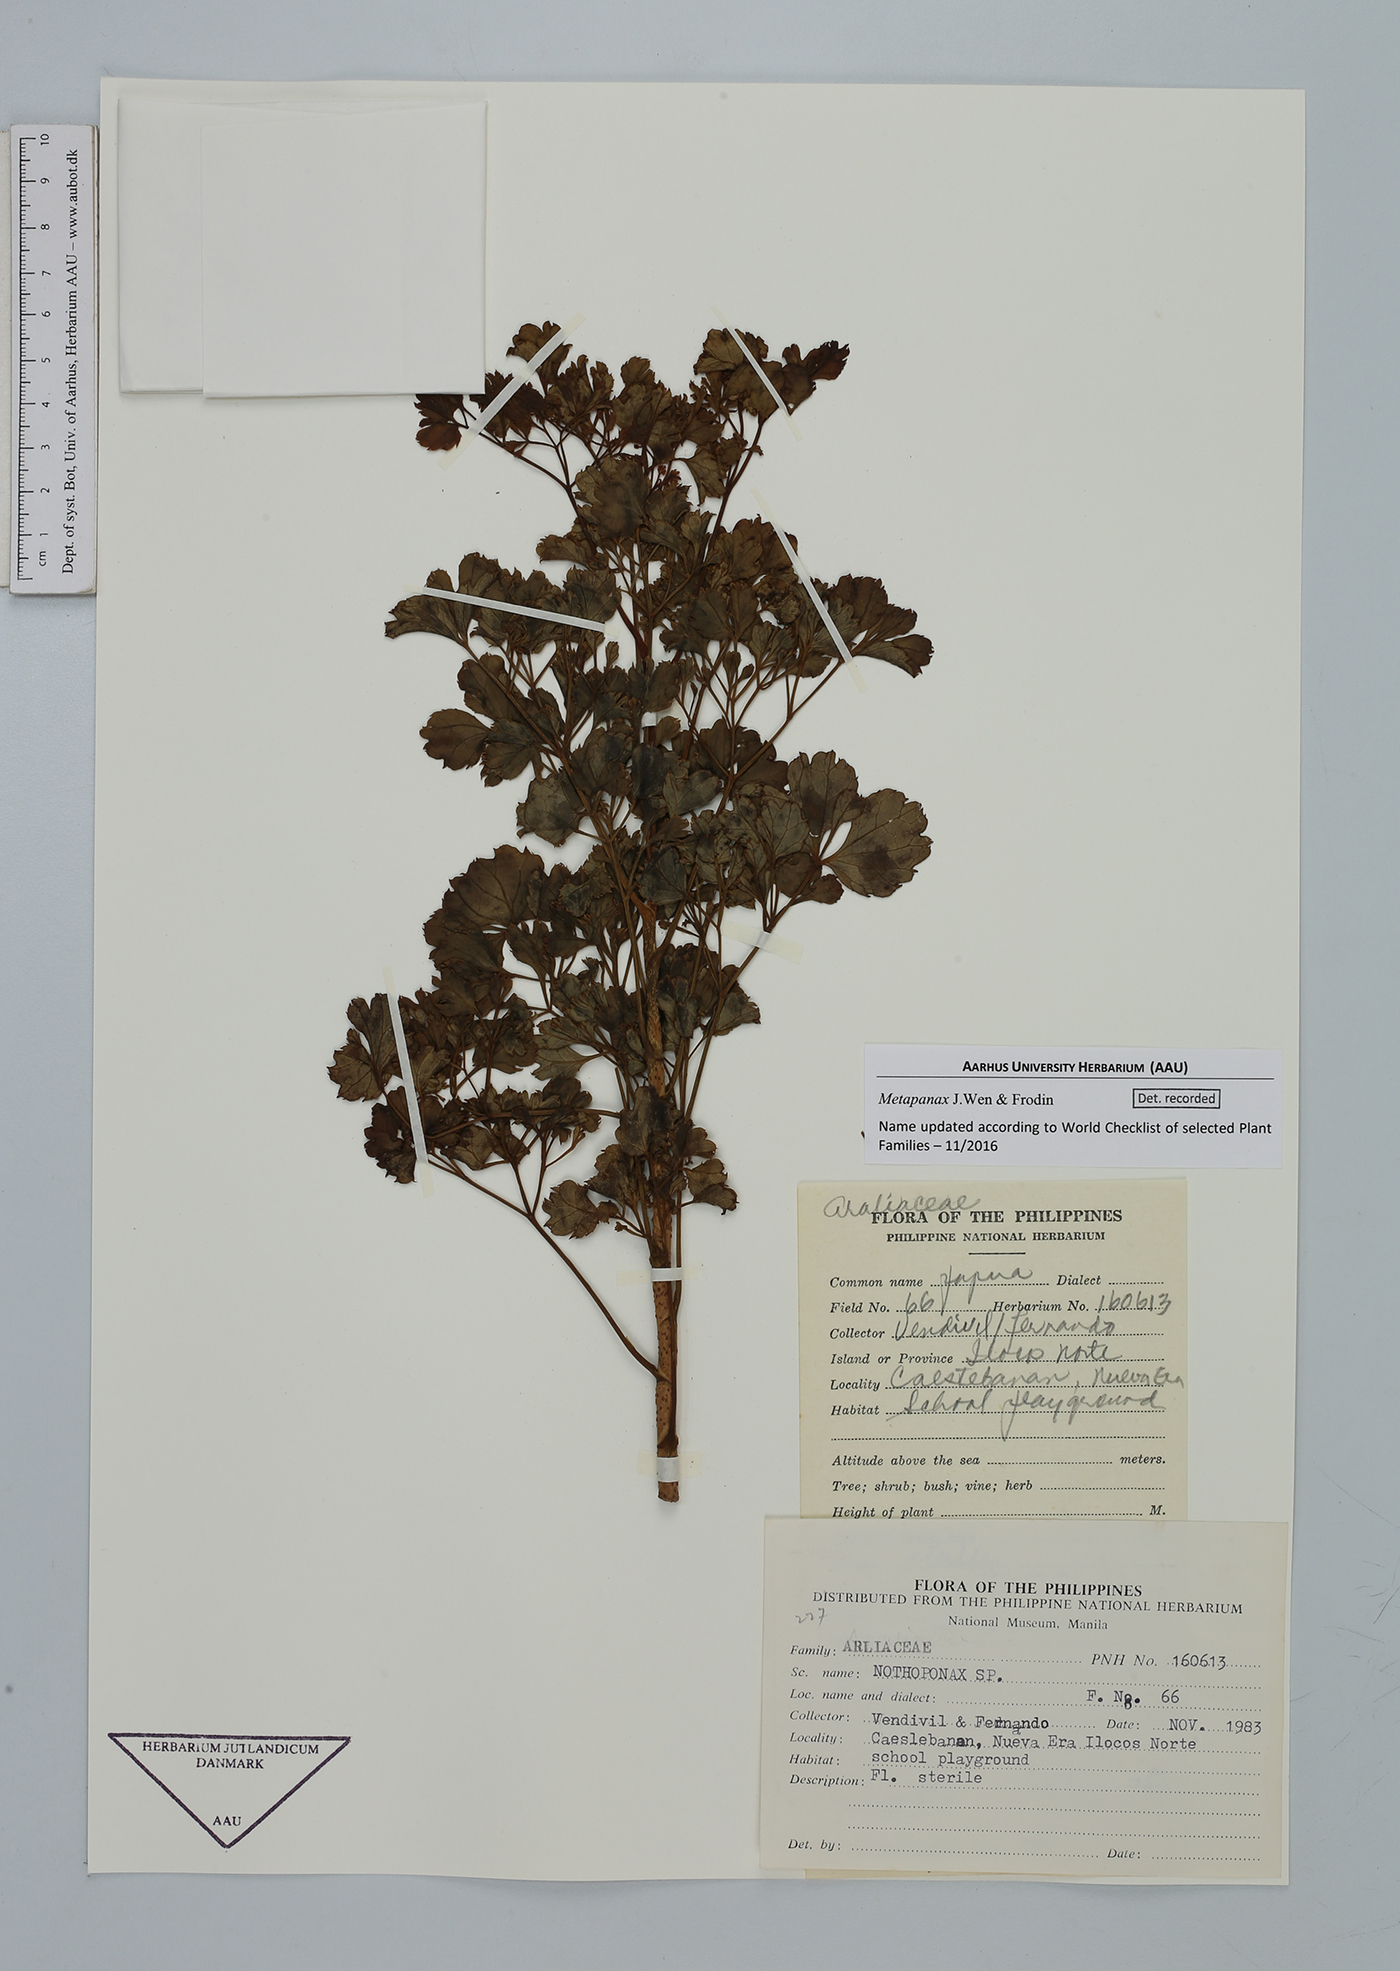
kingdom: Plantae
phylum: Tracheophyta
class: Magnoliopsida
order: Apiales
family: Araliaceae
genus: Metapanax
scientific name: Metapanax
